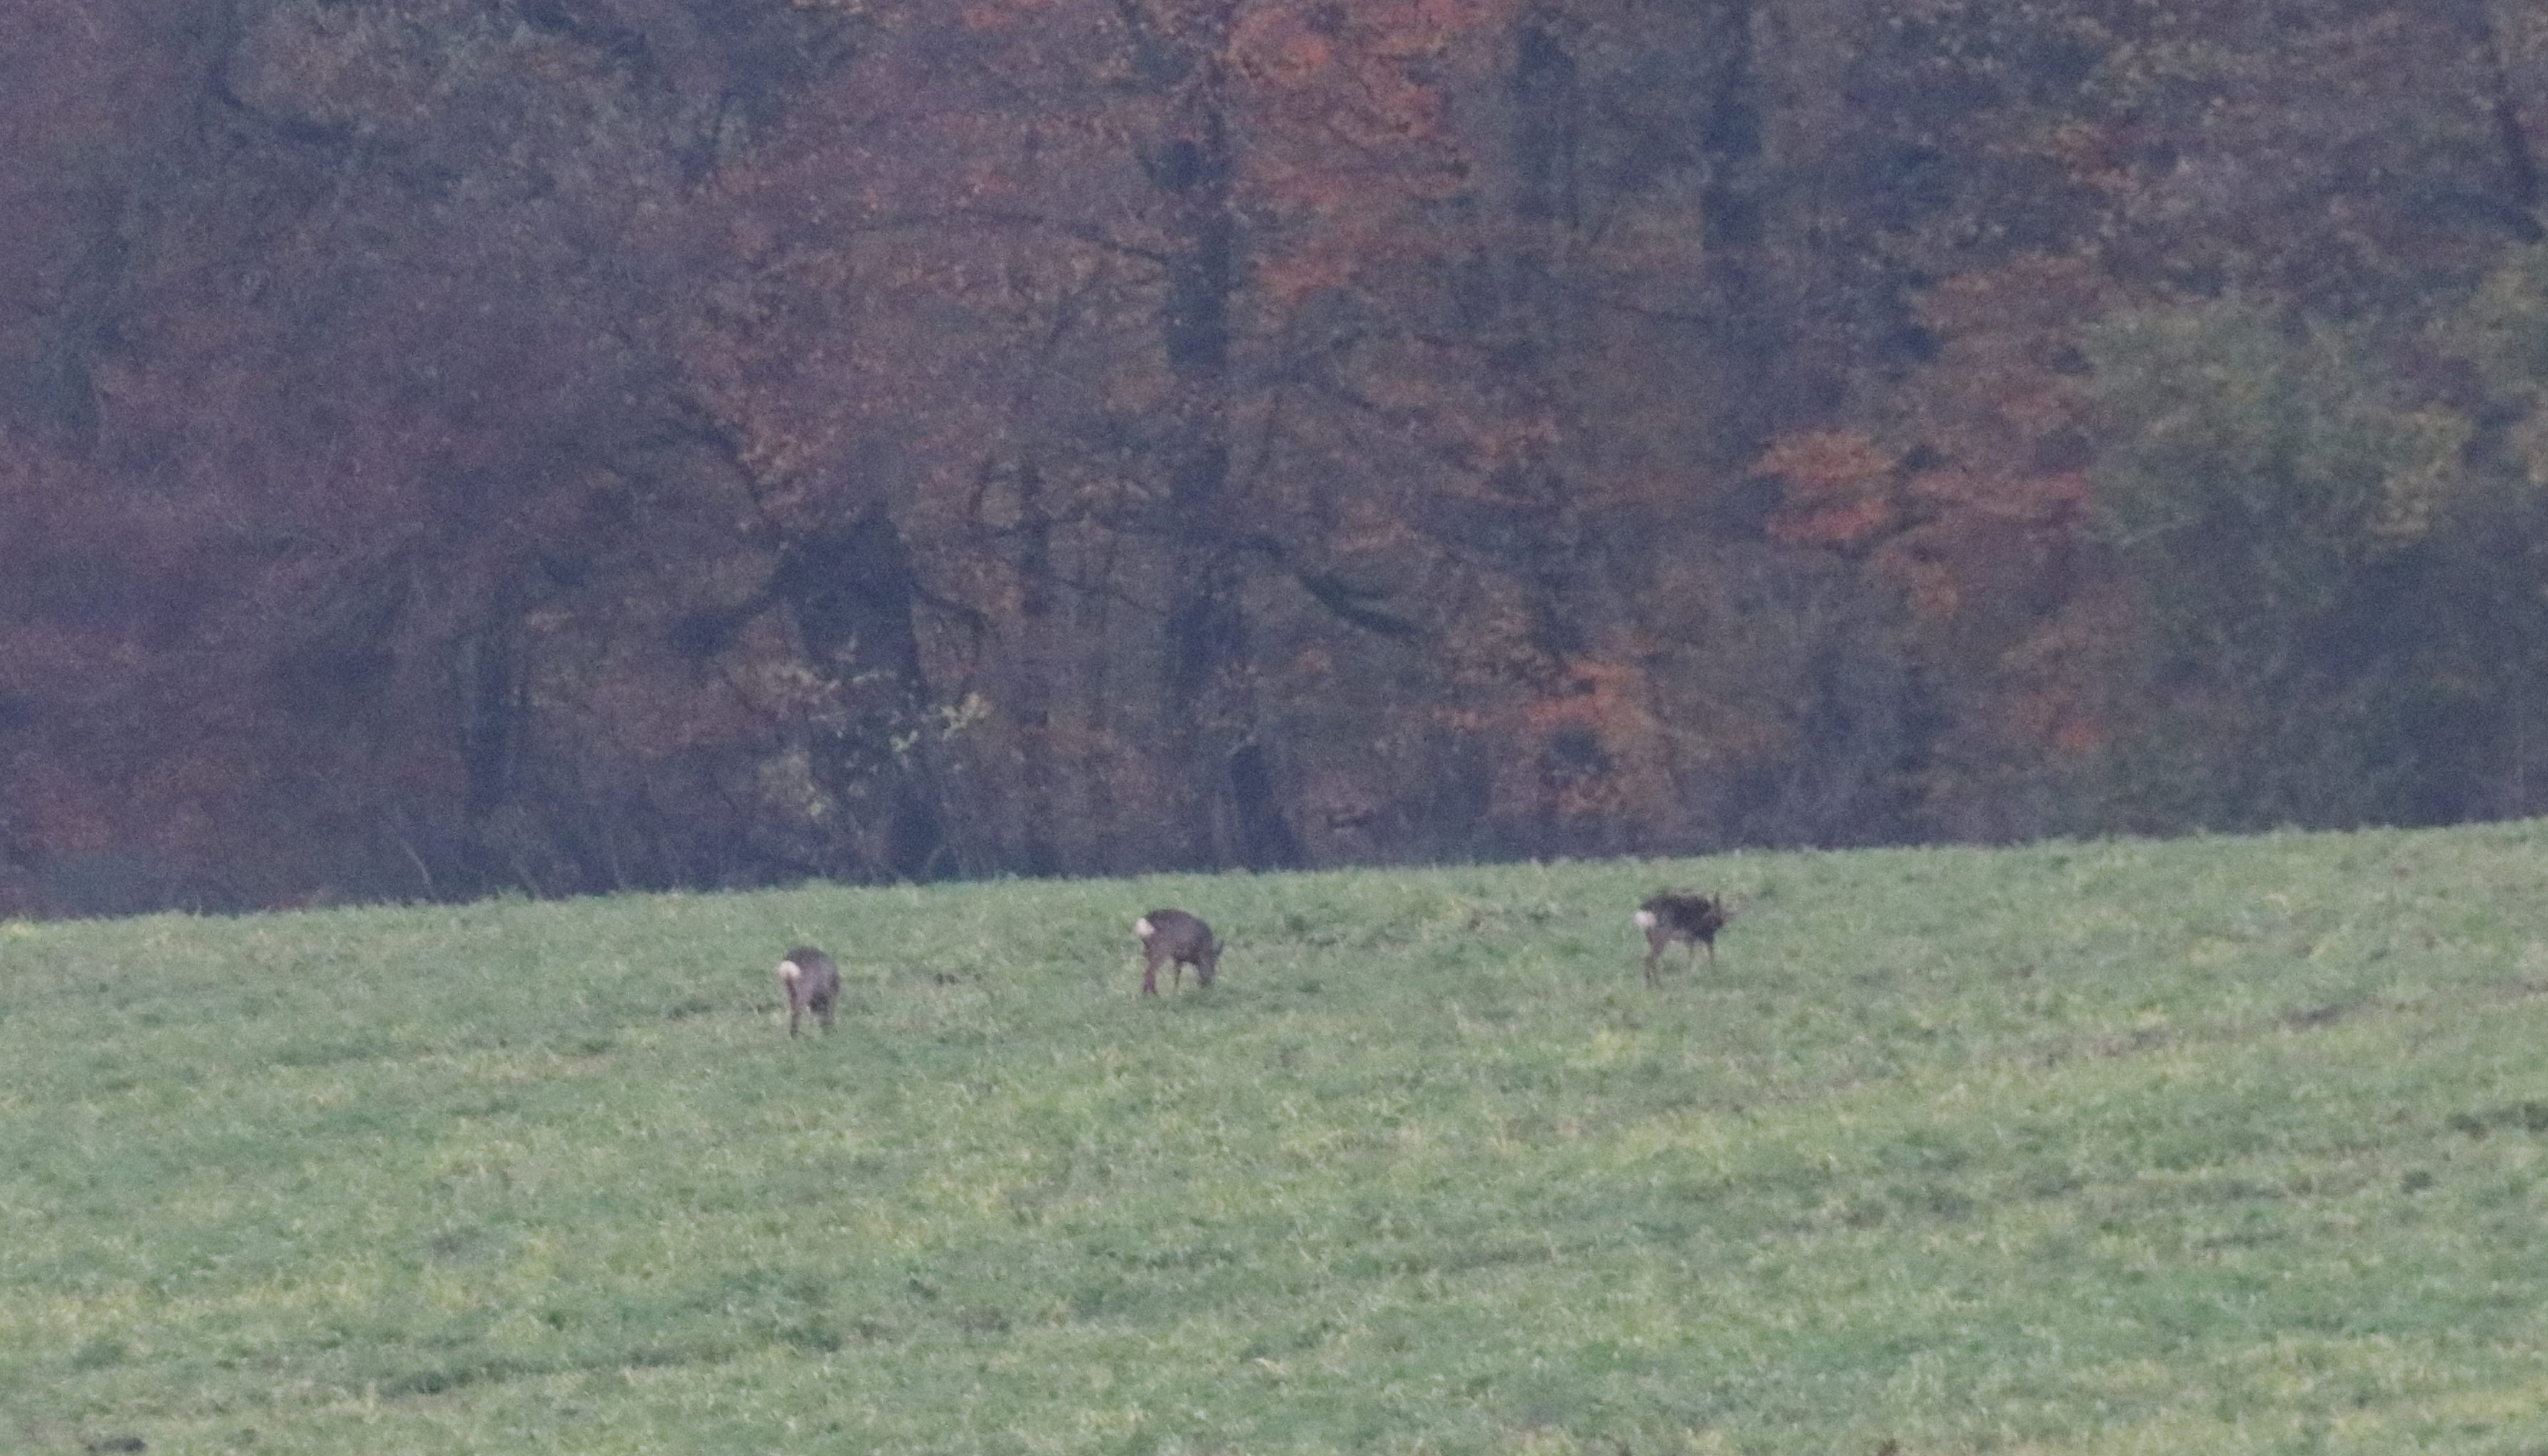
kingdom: Animalia
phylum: Chordata
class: Mammalia
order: Artiodactyla
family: Cervidae
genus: Capreolus
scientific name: Capreolus capreolus
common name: Rådyr
